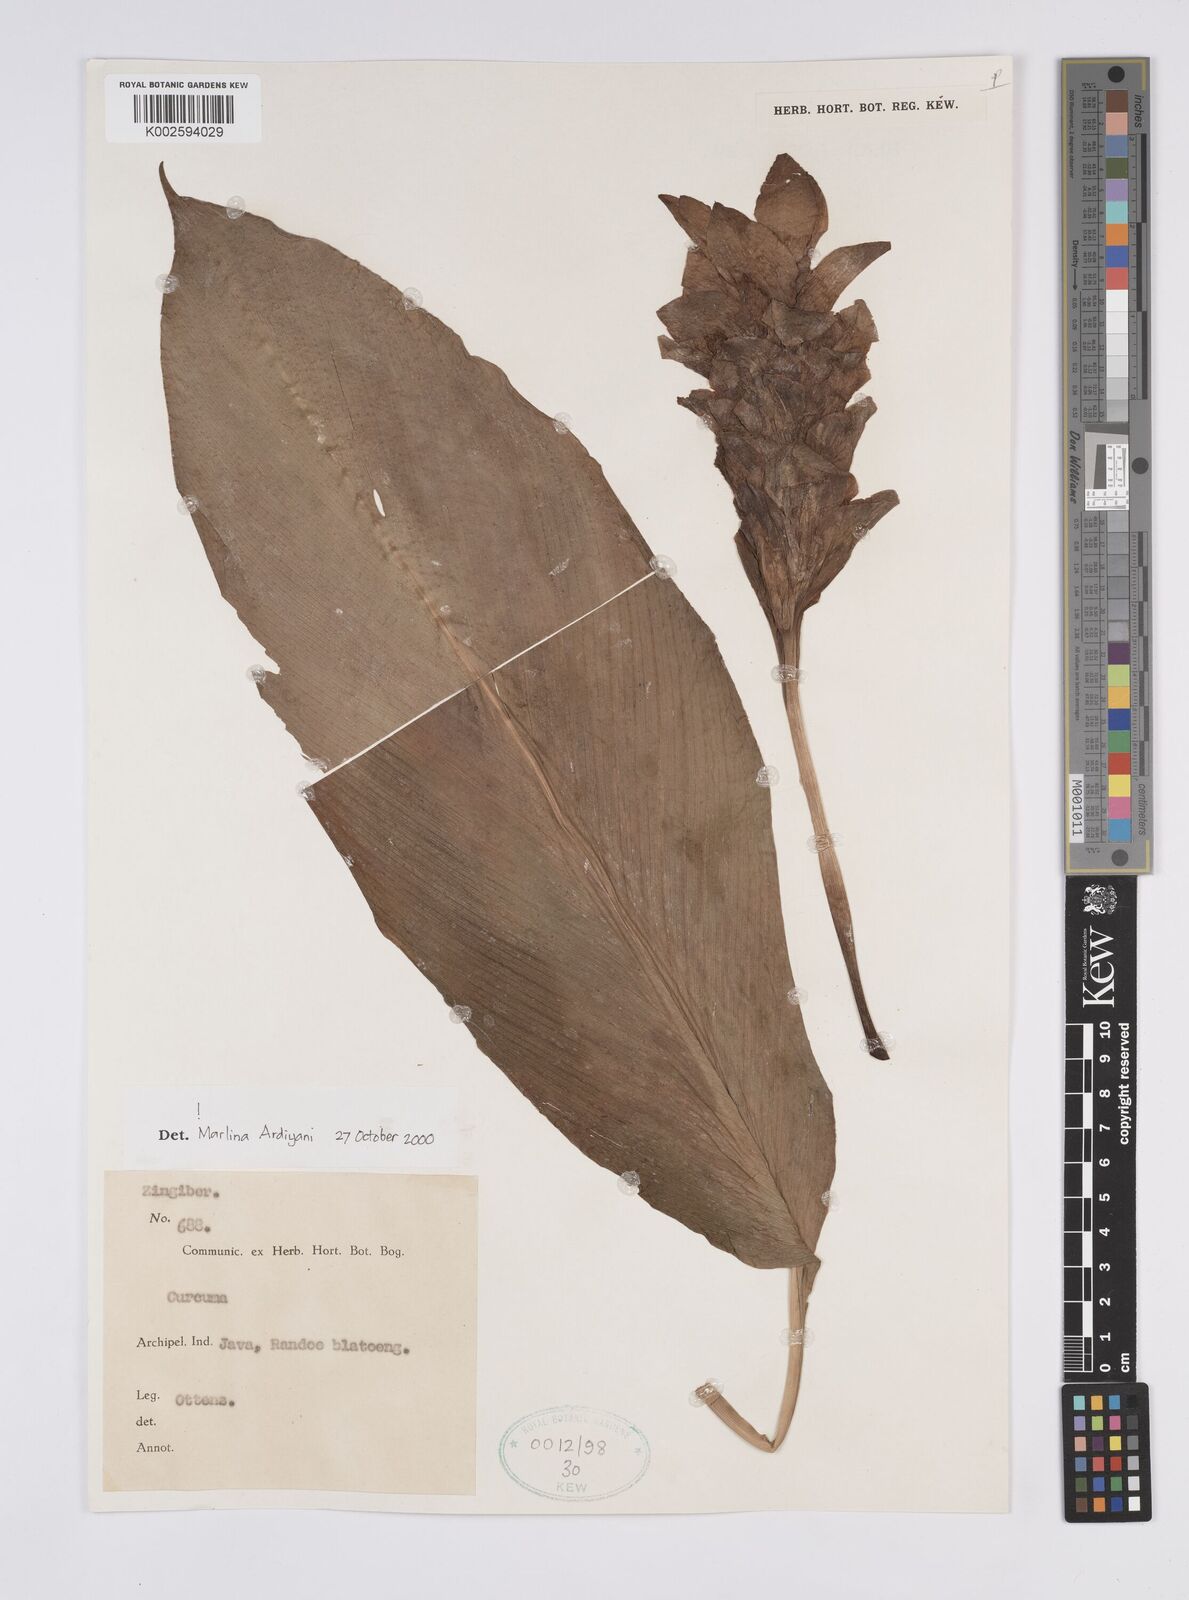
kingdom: Plantae
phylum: Tracheophyta
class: Liliopsida
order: Zingiberales
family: Zingiberaceae
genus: Curcuma
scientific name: Curcuma
